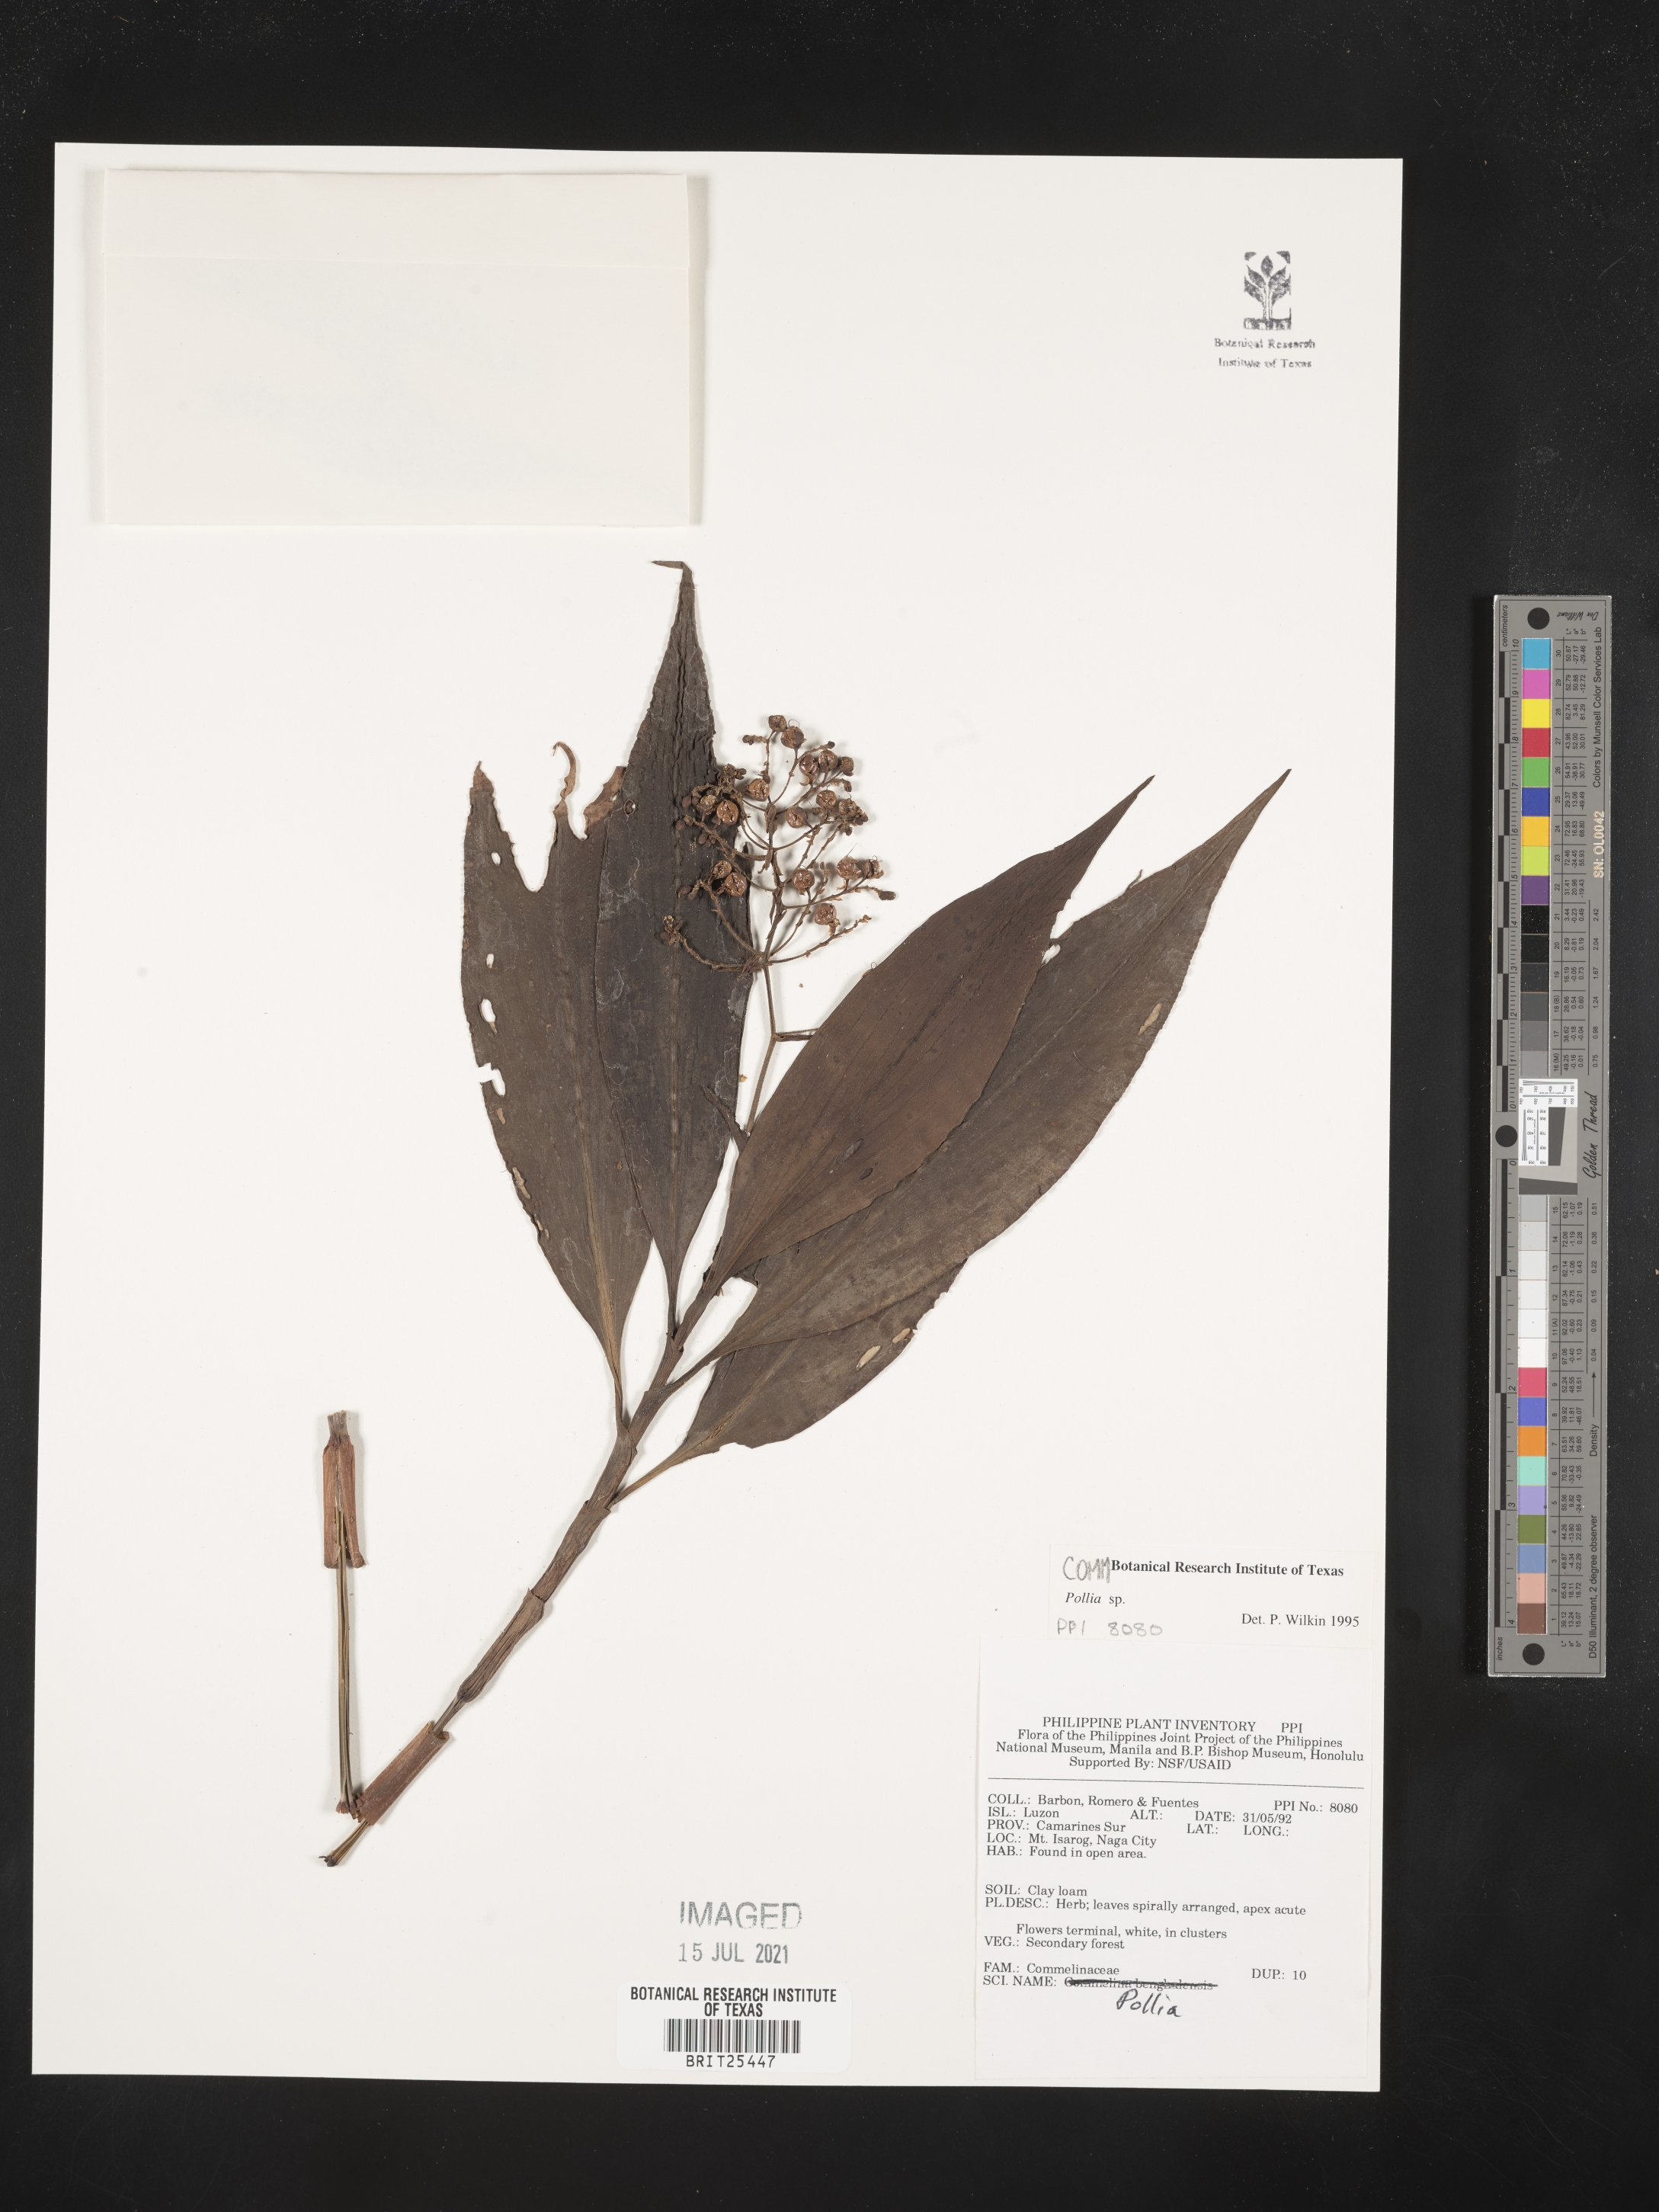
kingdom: Plantae
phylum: Tracheophyta
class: Liliopsida
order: Commelinales
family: Commelinaceae
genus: Pollia
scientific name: Pollia
